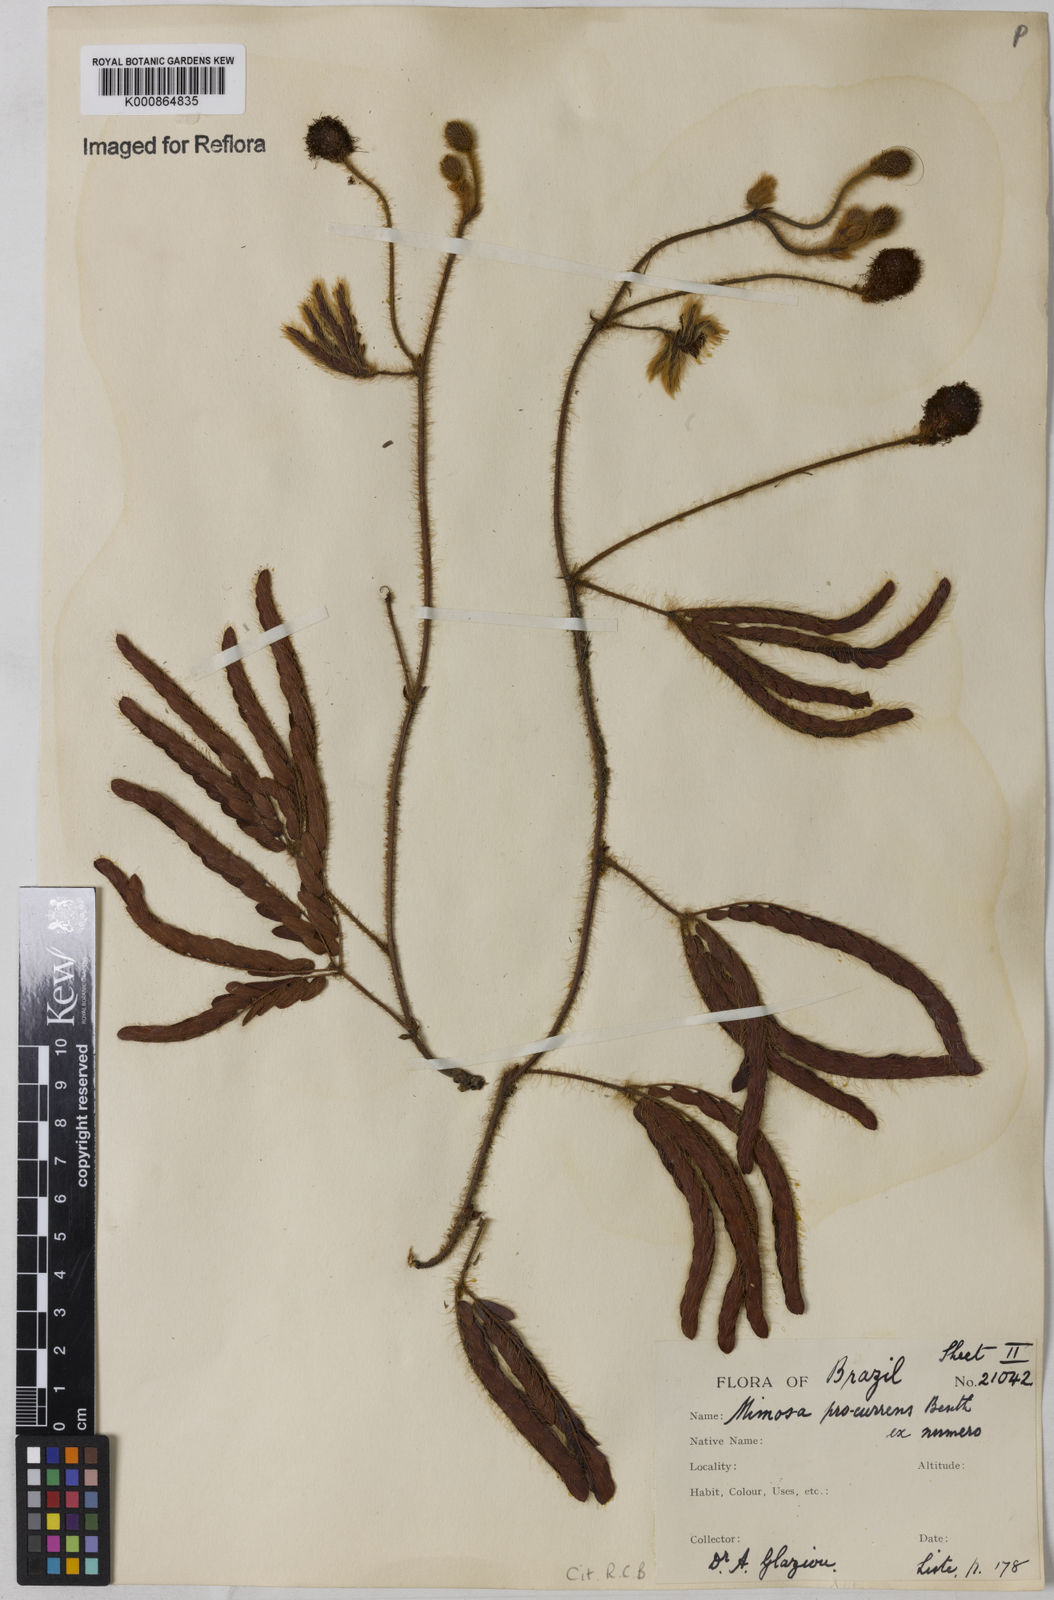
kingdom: Plantae
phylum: Tracheophyta
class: Magnoliopsida
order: Fabales
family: Fabaceae
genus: Mimosa
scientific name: Mimosa procurrens
